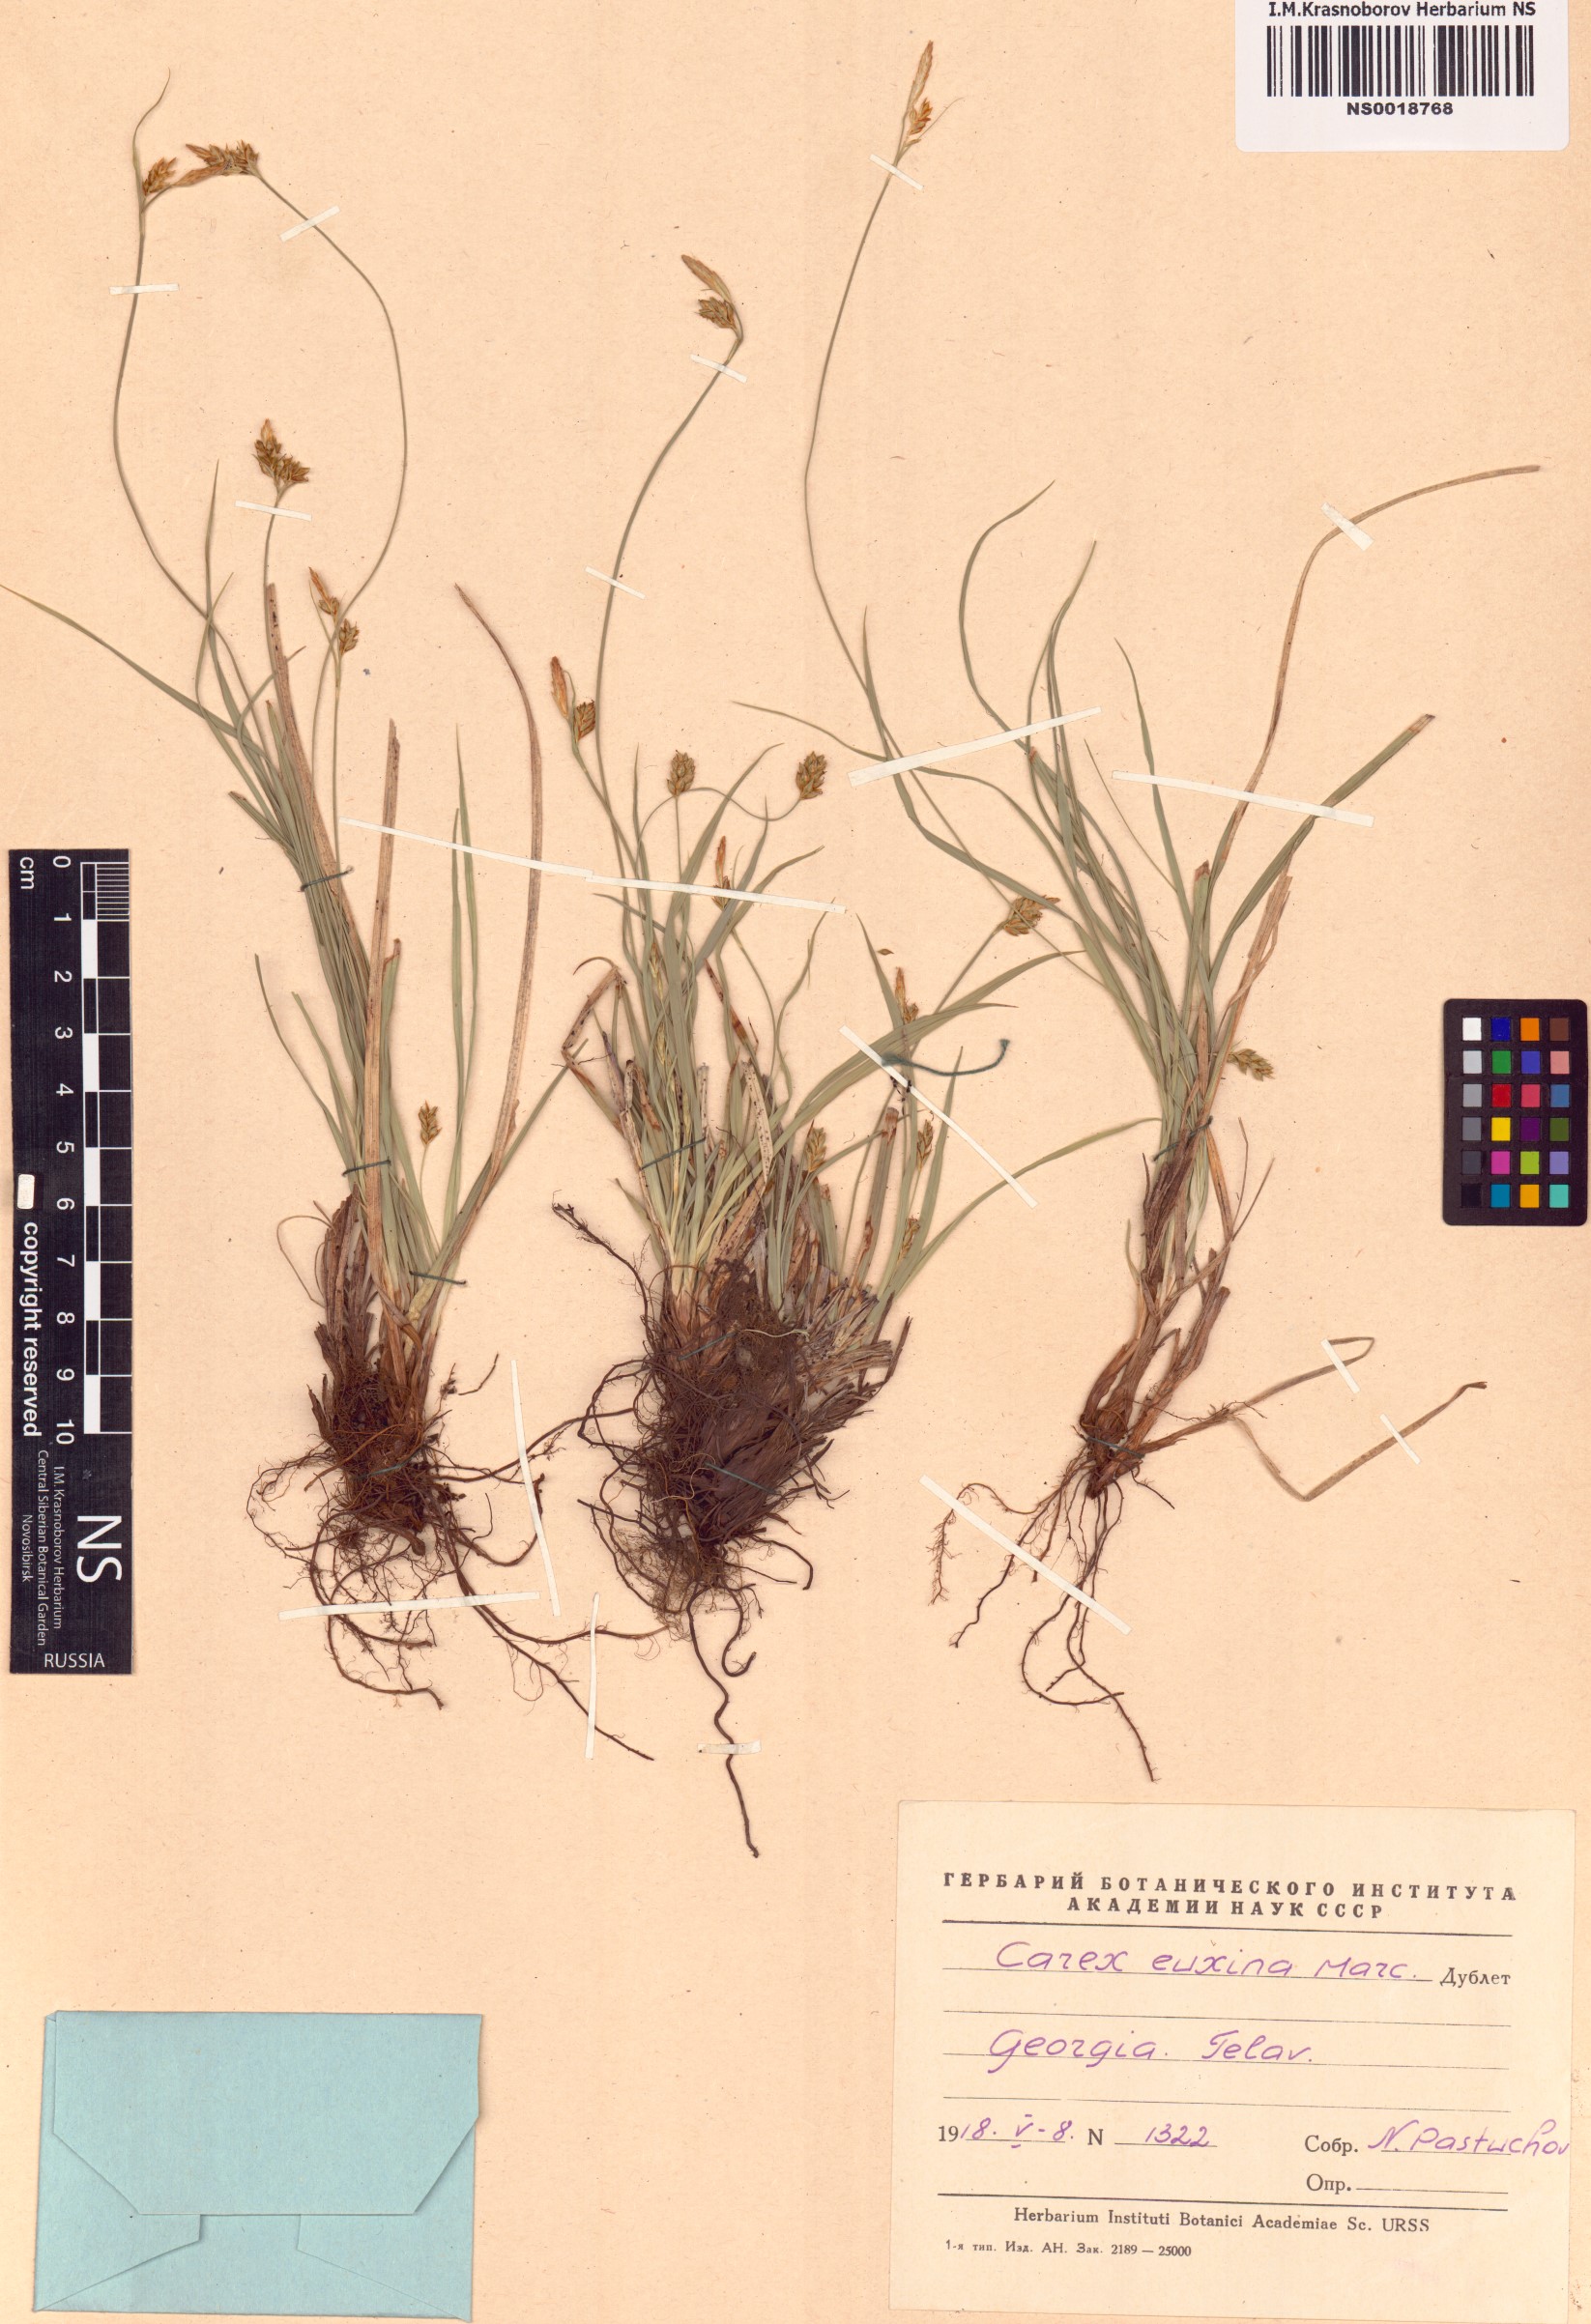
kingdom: Plantae
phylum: Tracheophyta
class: Liliopsida
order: Poales
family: Cyperaceae
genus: Carex
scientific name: Carex euxina
